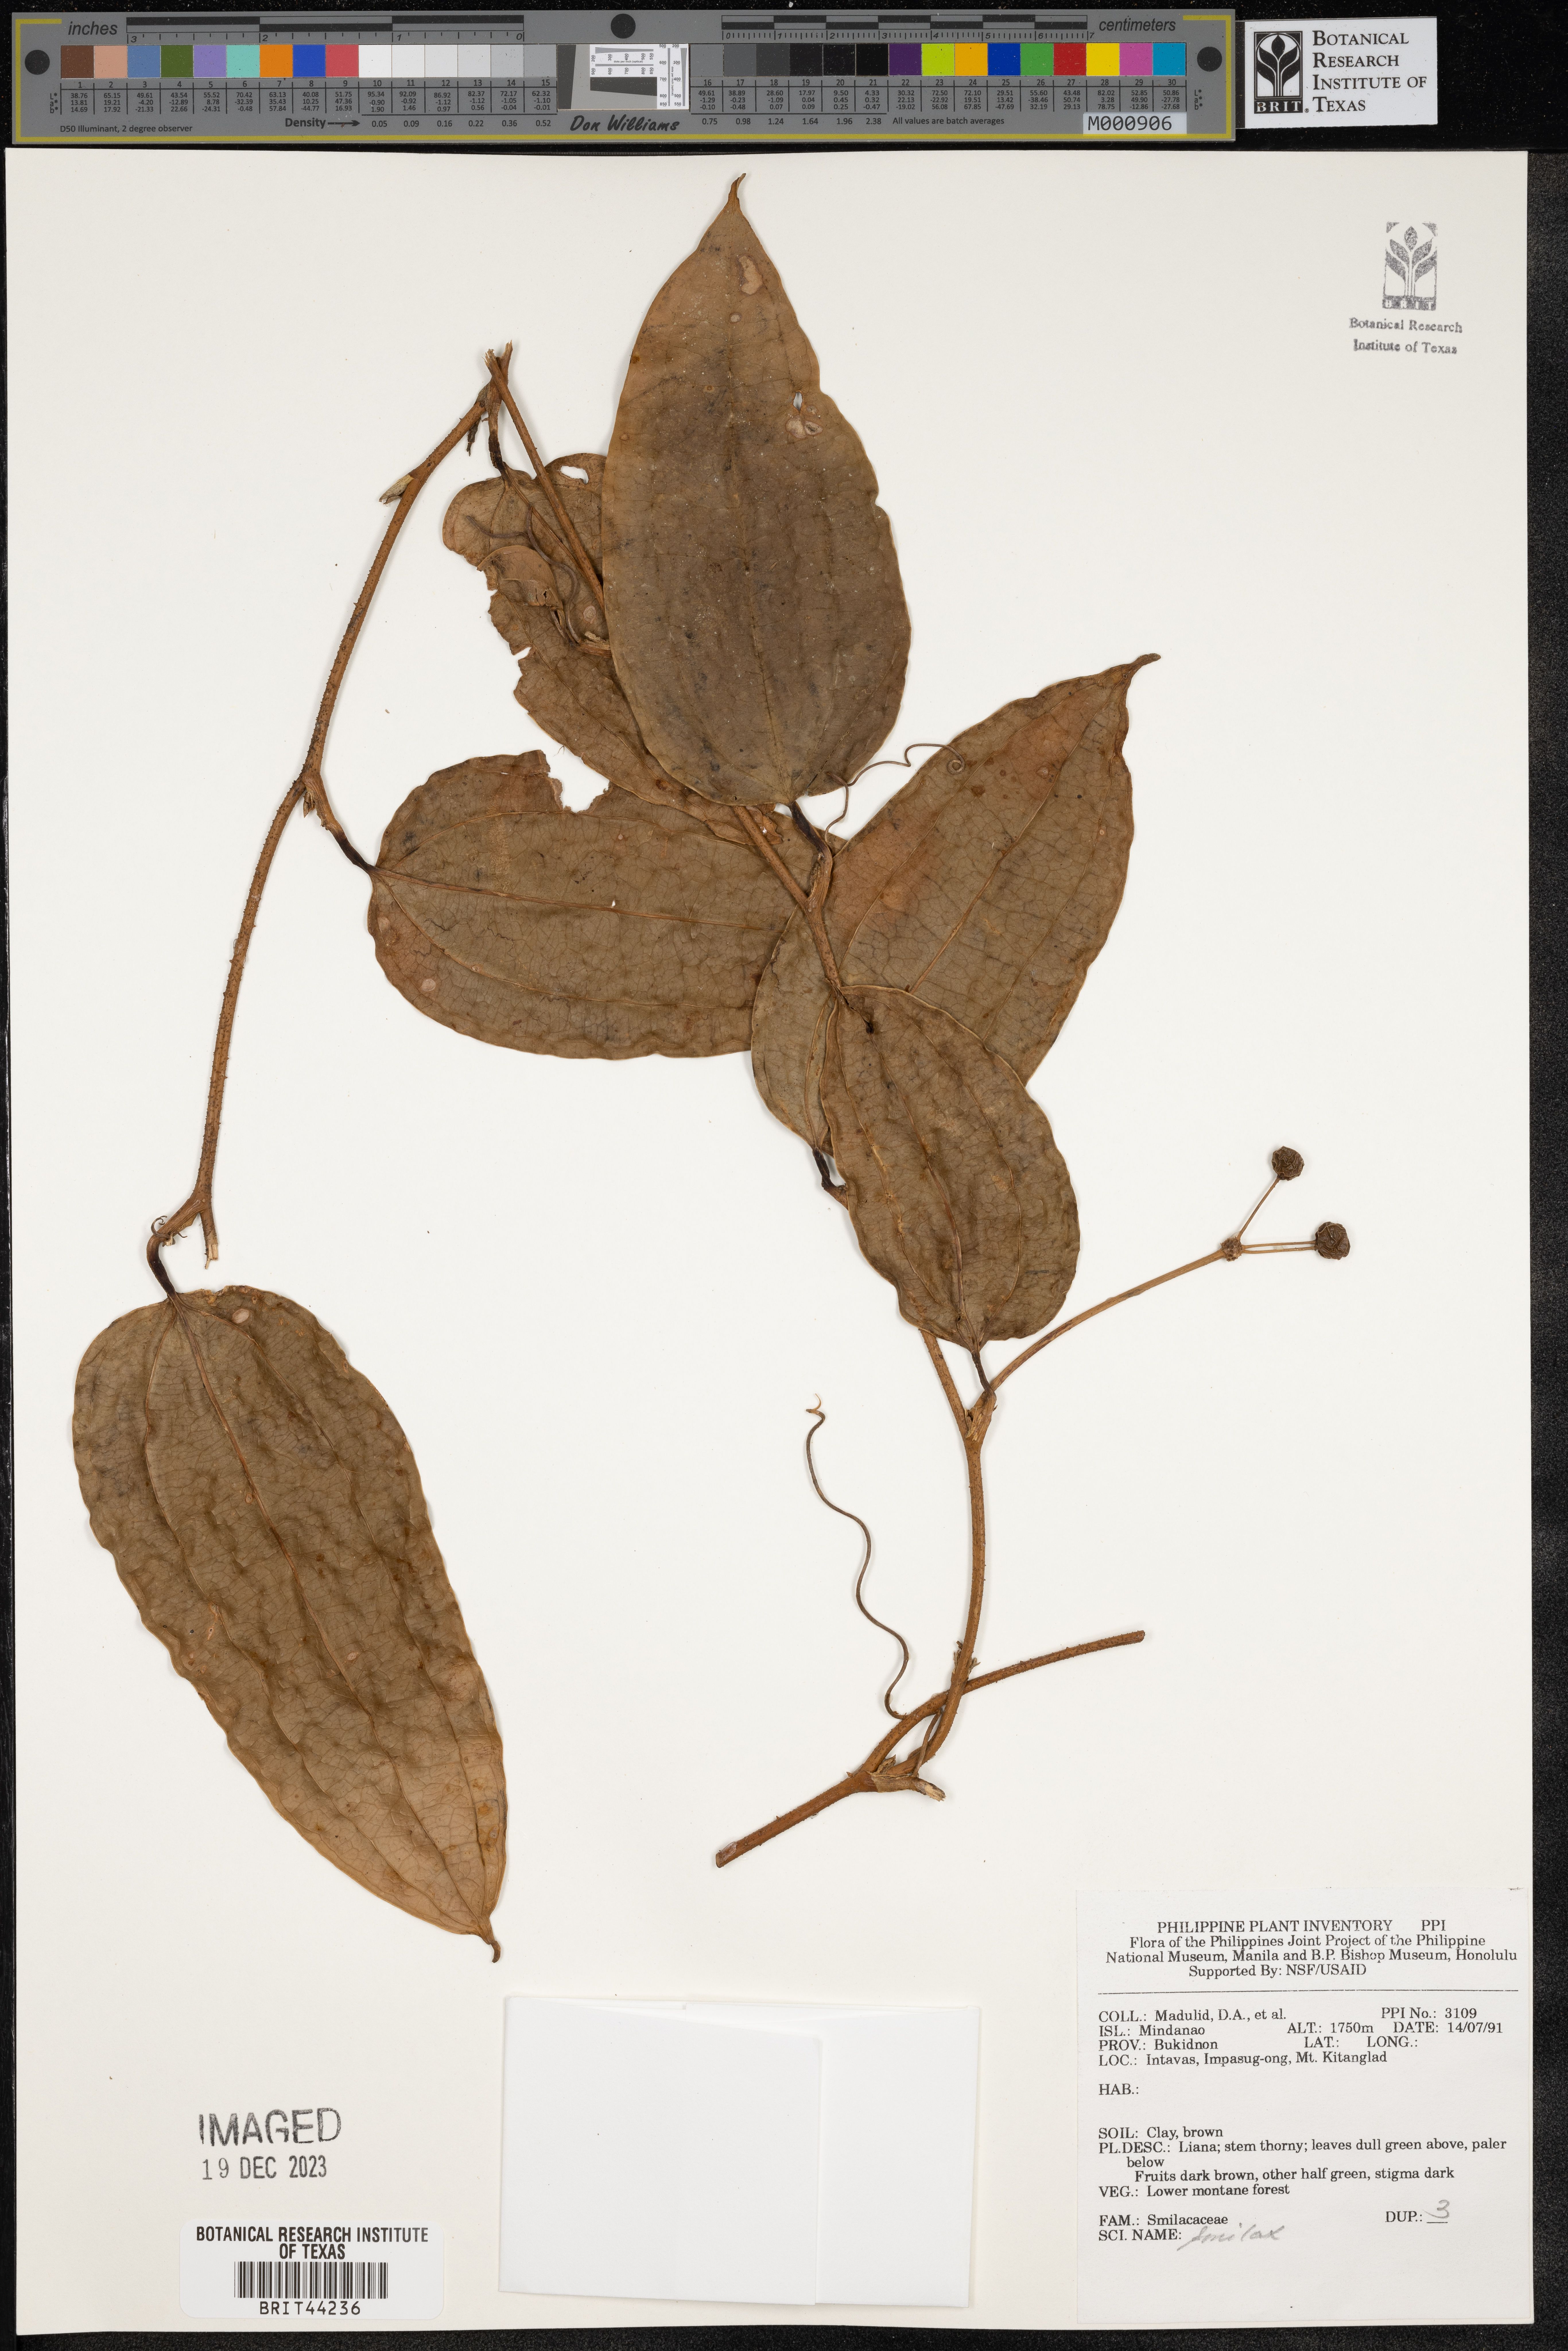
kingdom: Plantae
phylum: Tracheophyta
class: Liliopsida
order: Liliales
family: Smilacaceae
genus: Smilax
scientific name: Smilax
